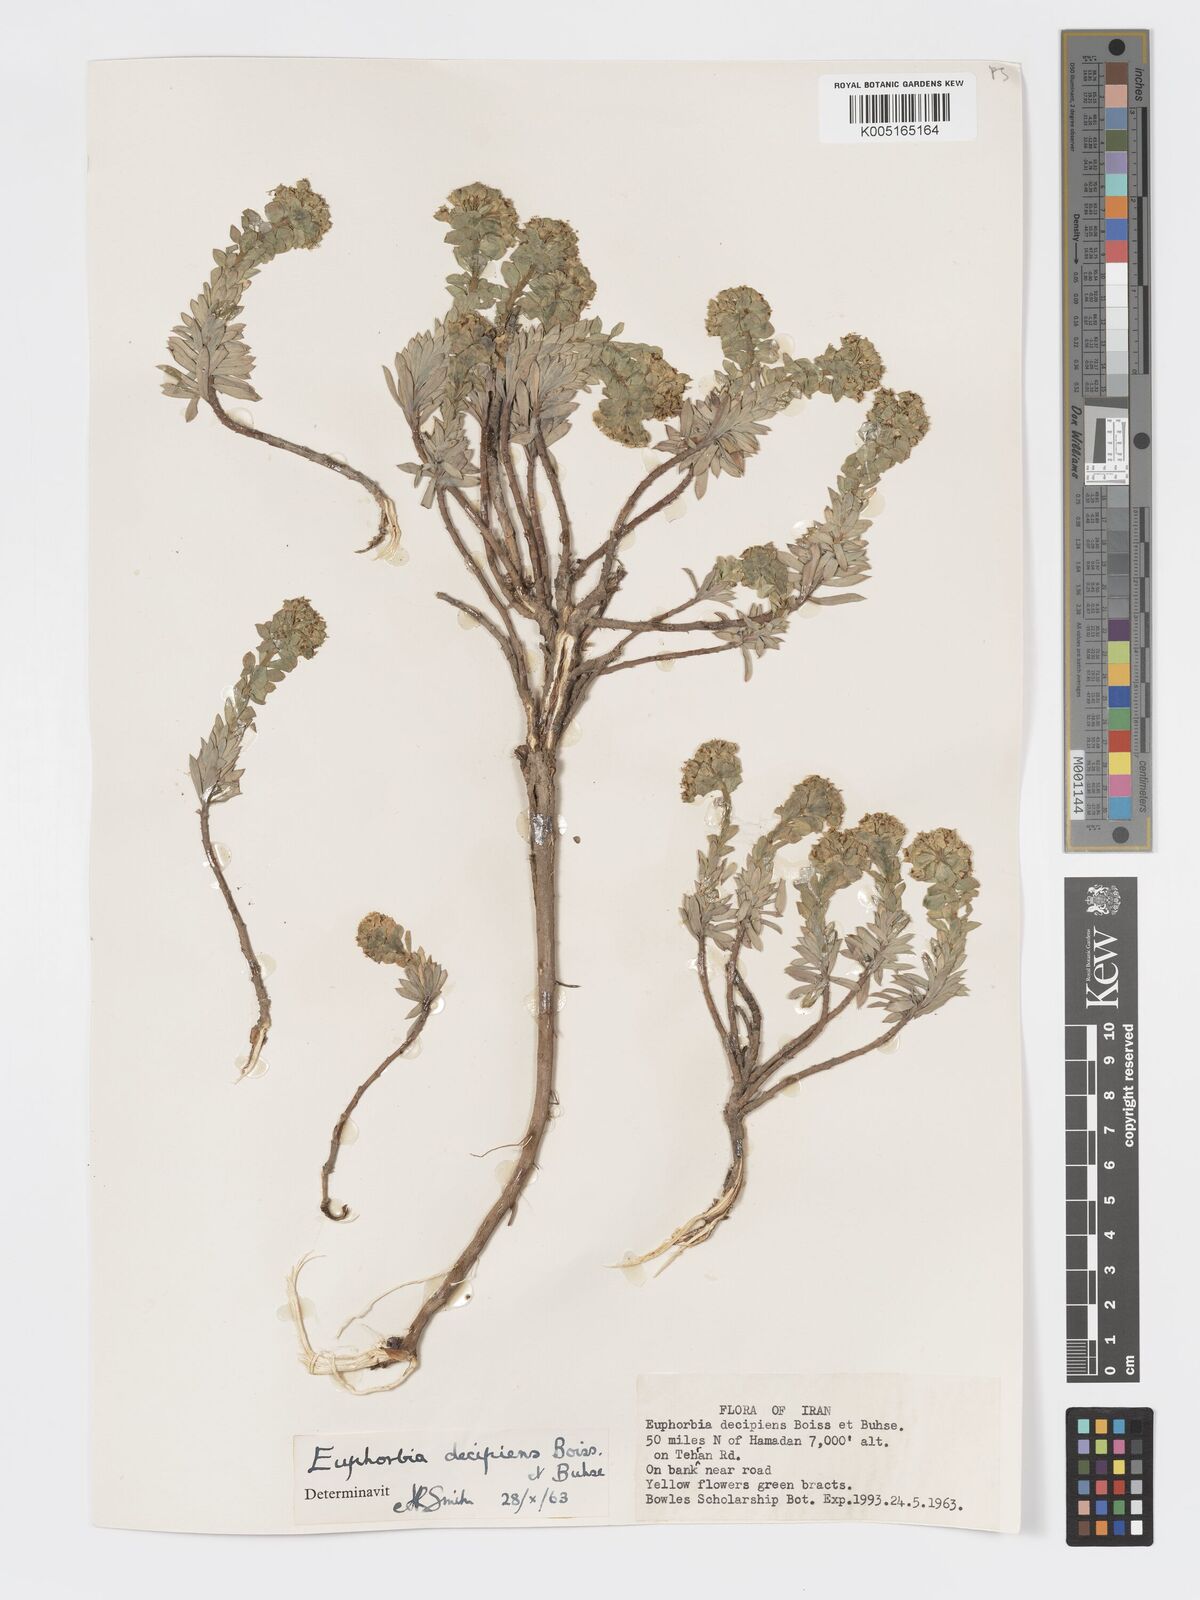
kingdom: Plantae
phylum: Tracheophyta
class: Magnoliopsida
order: Malpighiales
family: Euphorbiaceae
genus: Euphorbia
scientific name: Euphorbia polycaulis
